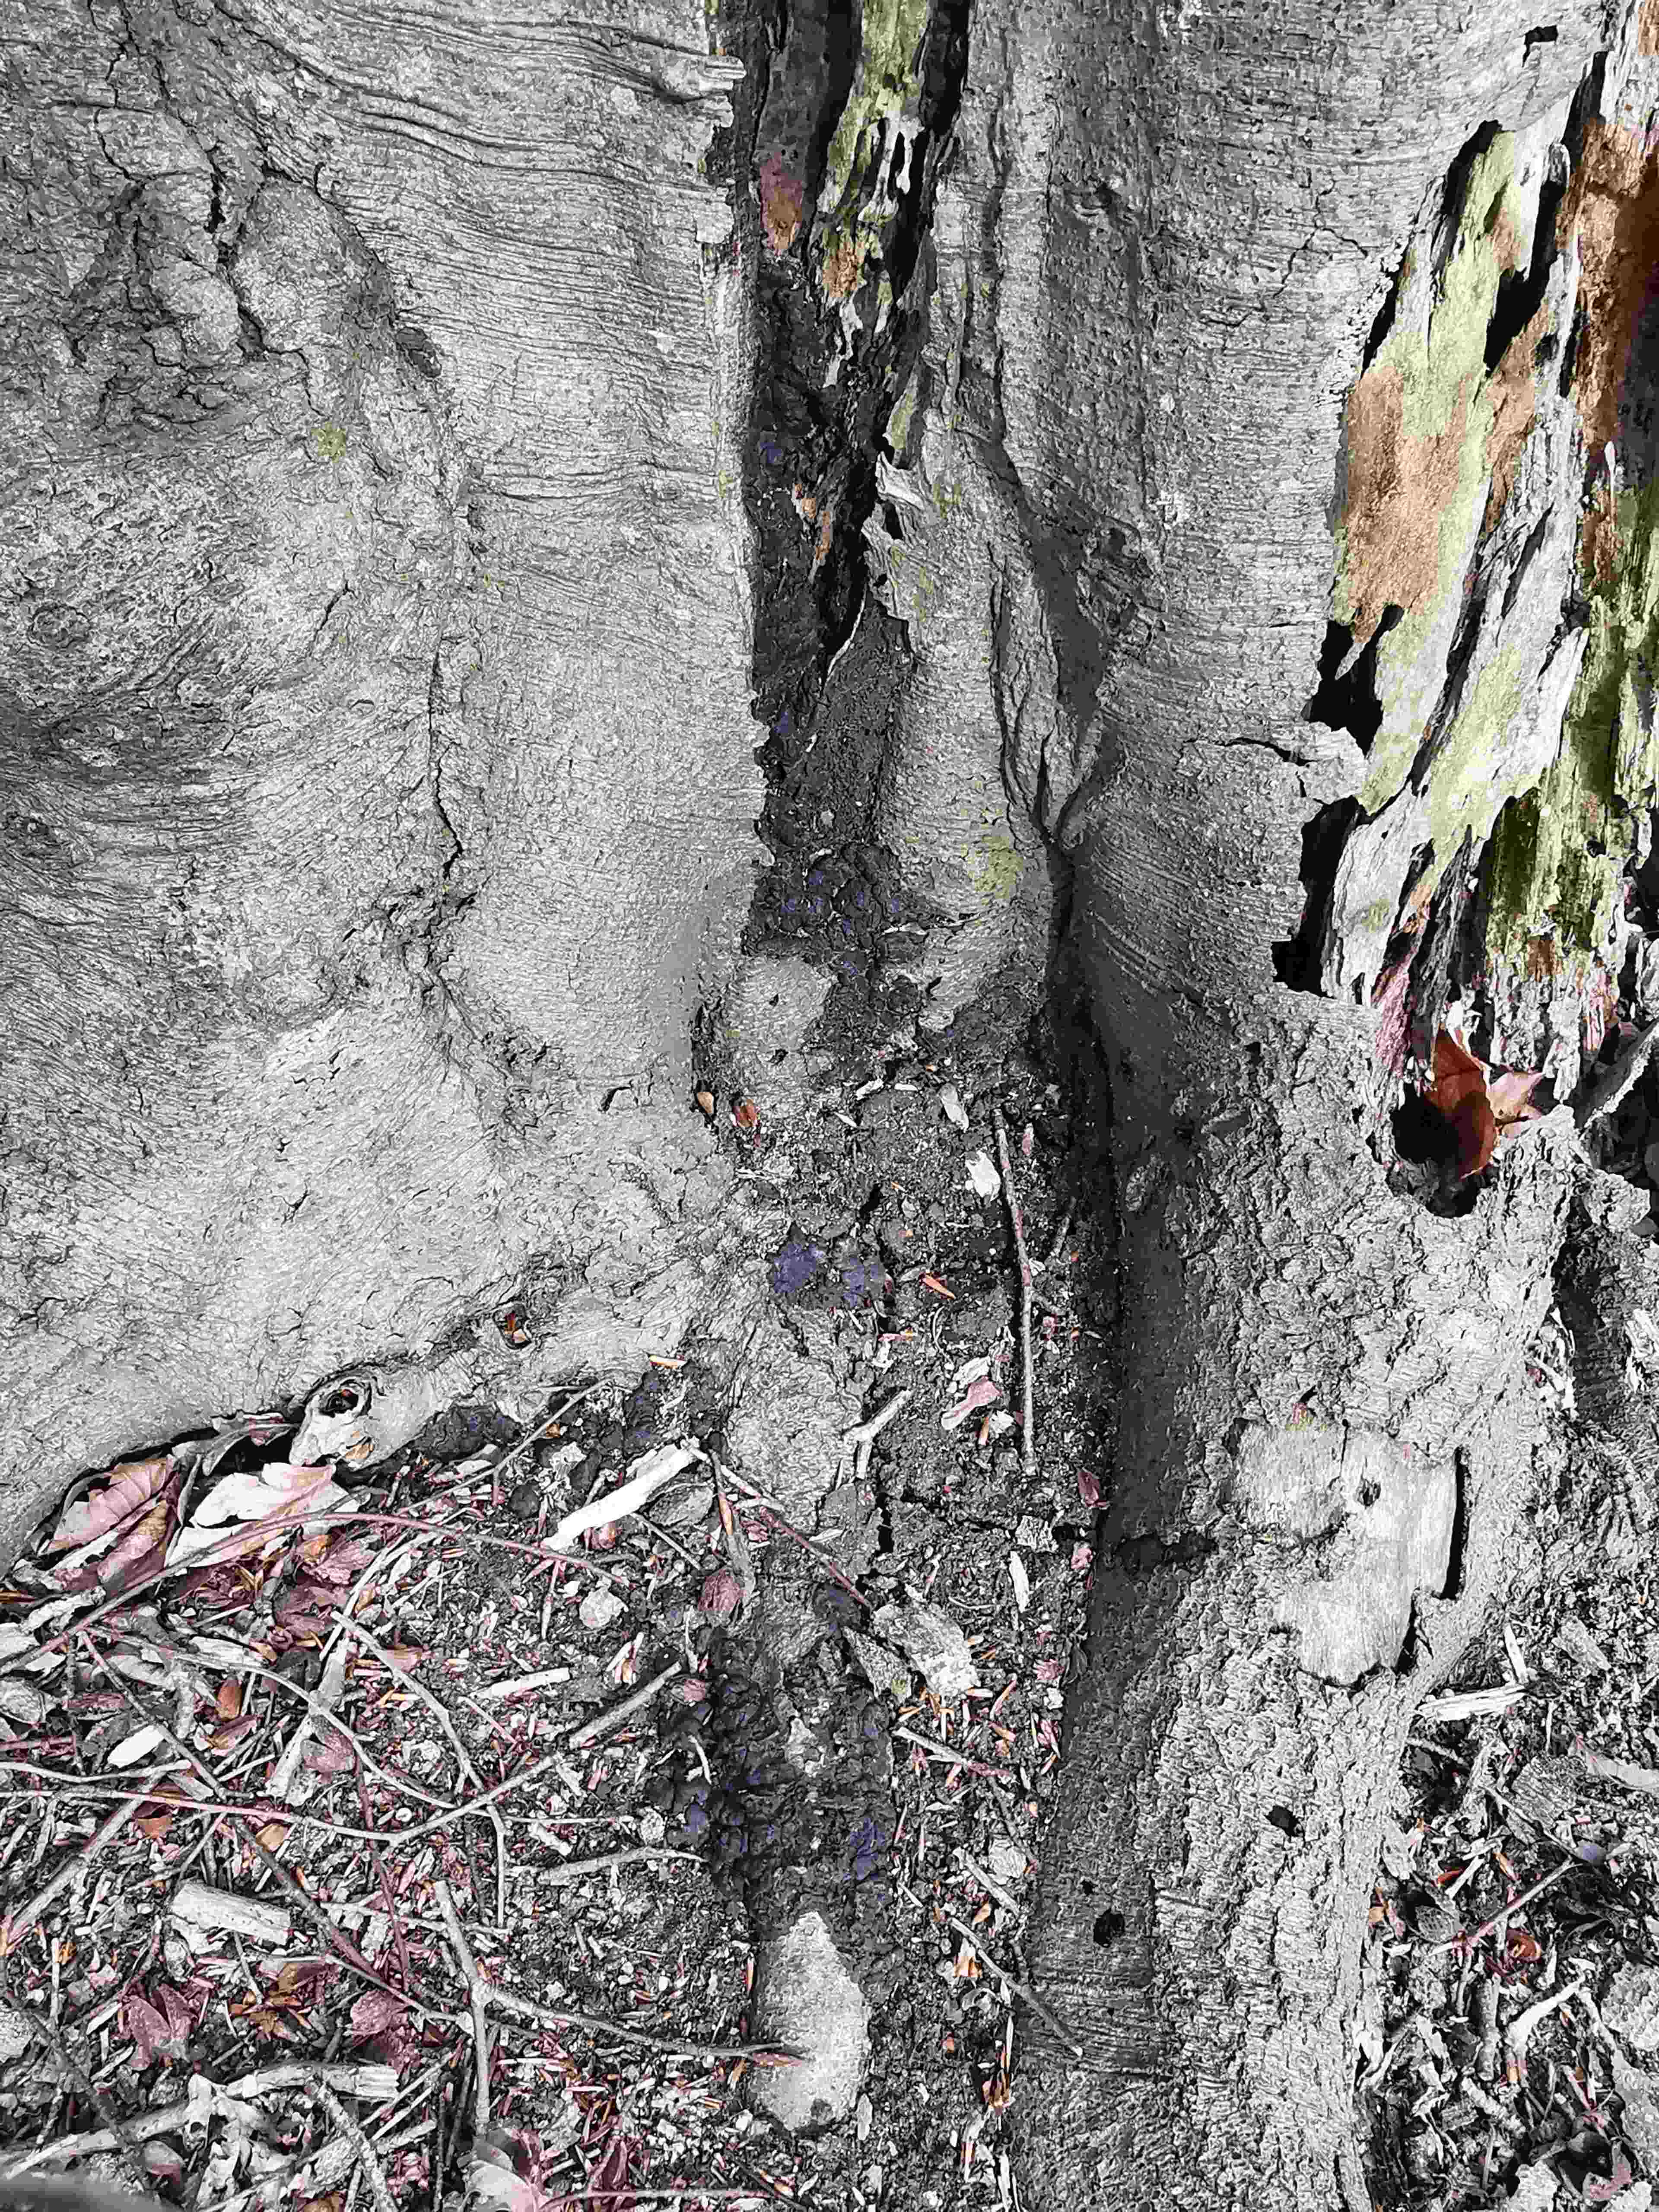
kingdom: Fungi
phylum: Ascomycota
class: Sordariomycetes
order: Xylariales
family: Xylariaceae
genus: Kretzschmaria
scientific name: Kretzschmaria deusta
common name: stor kulsvamp
